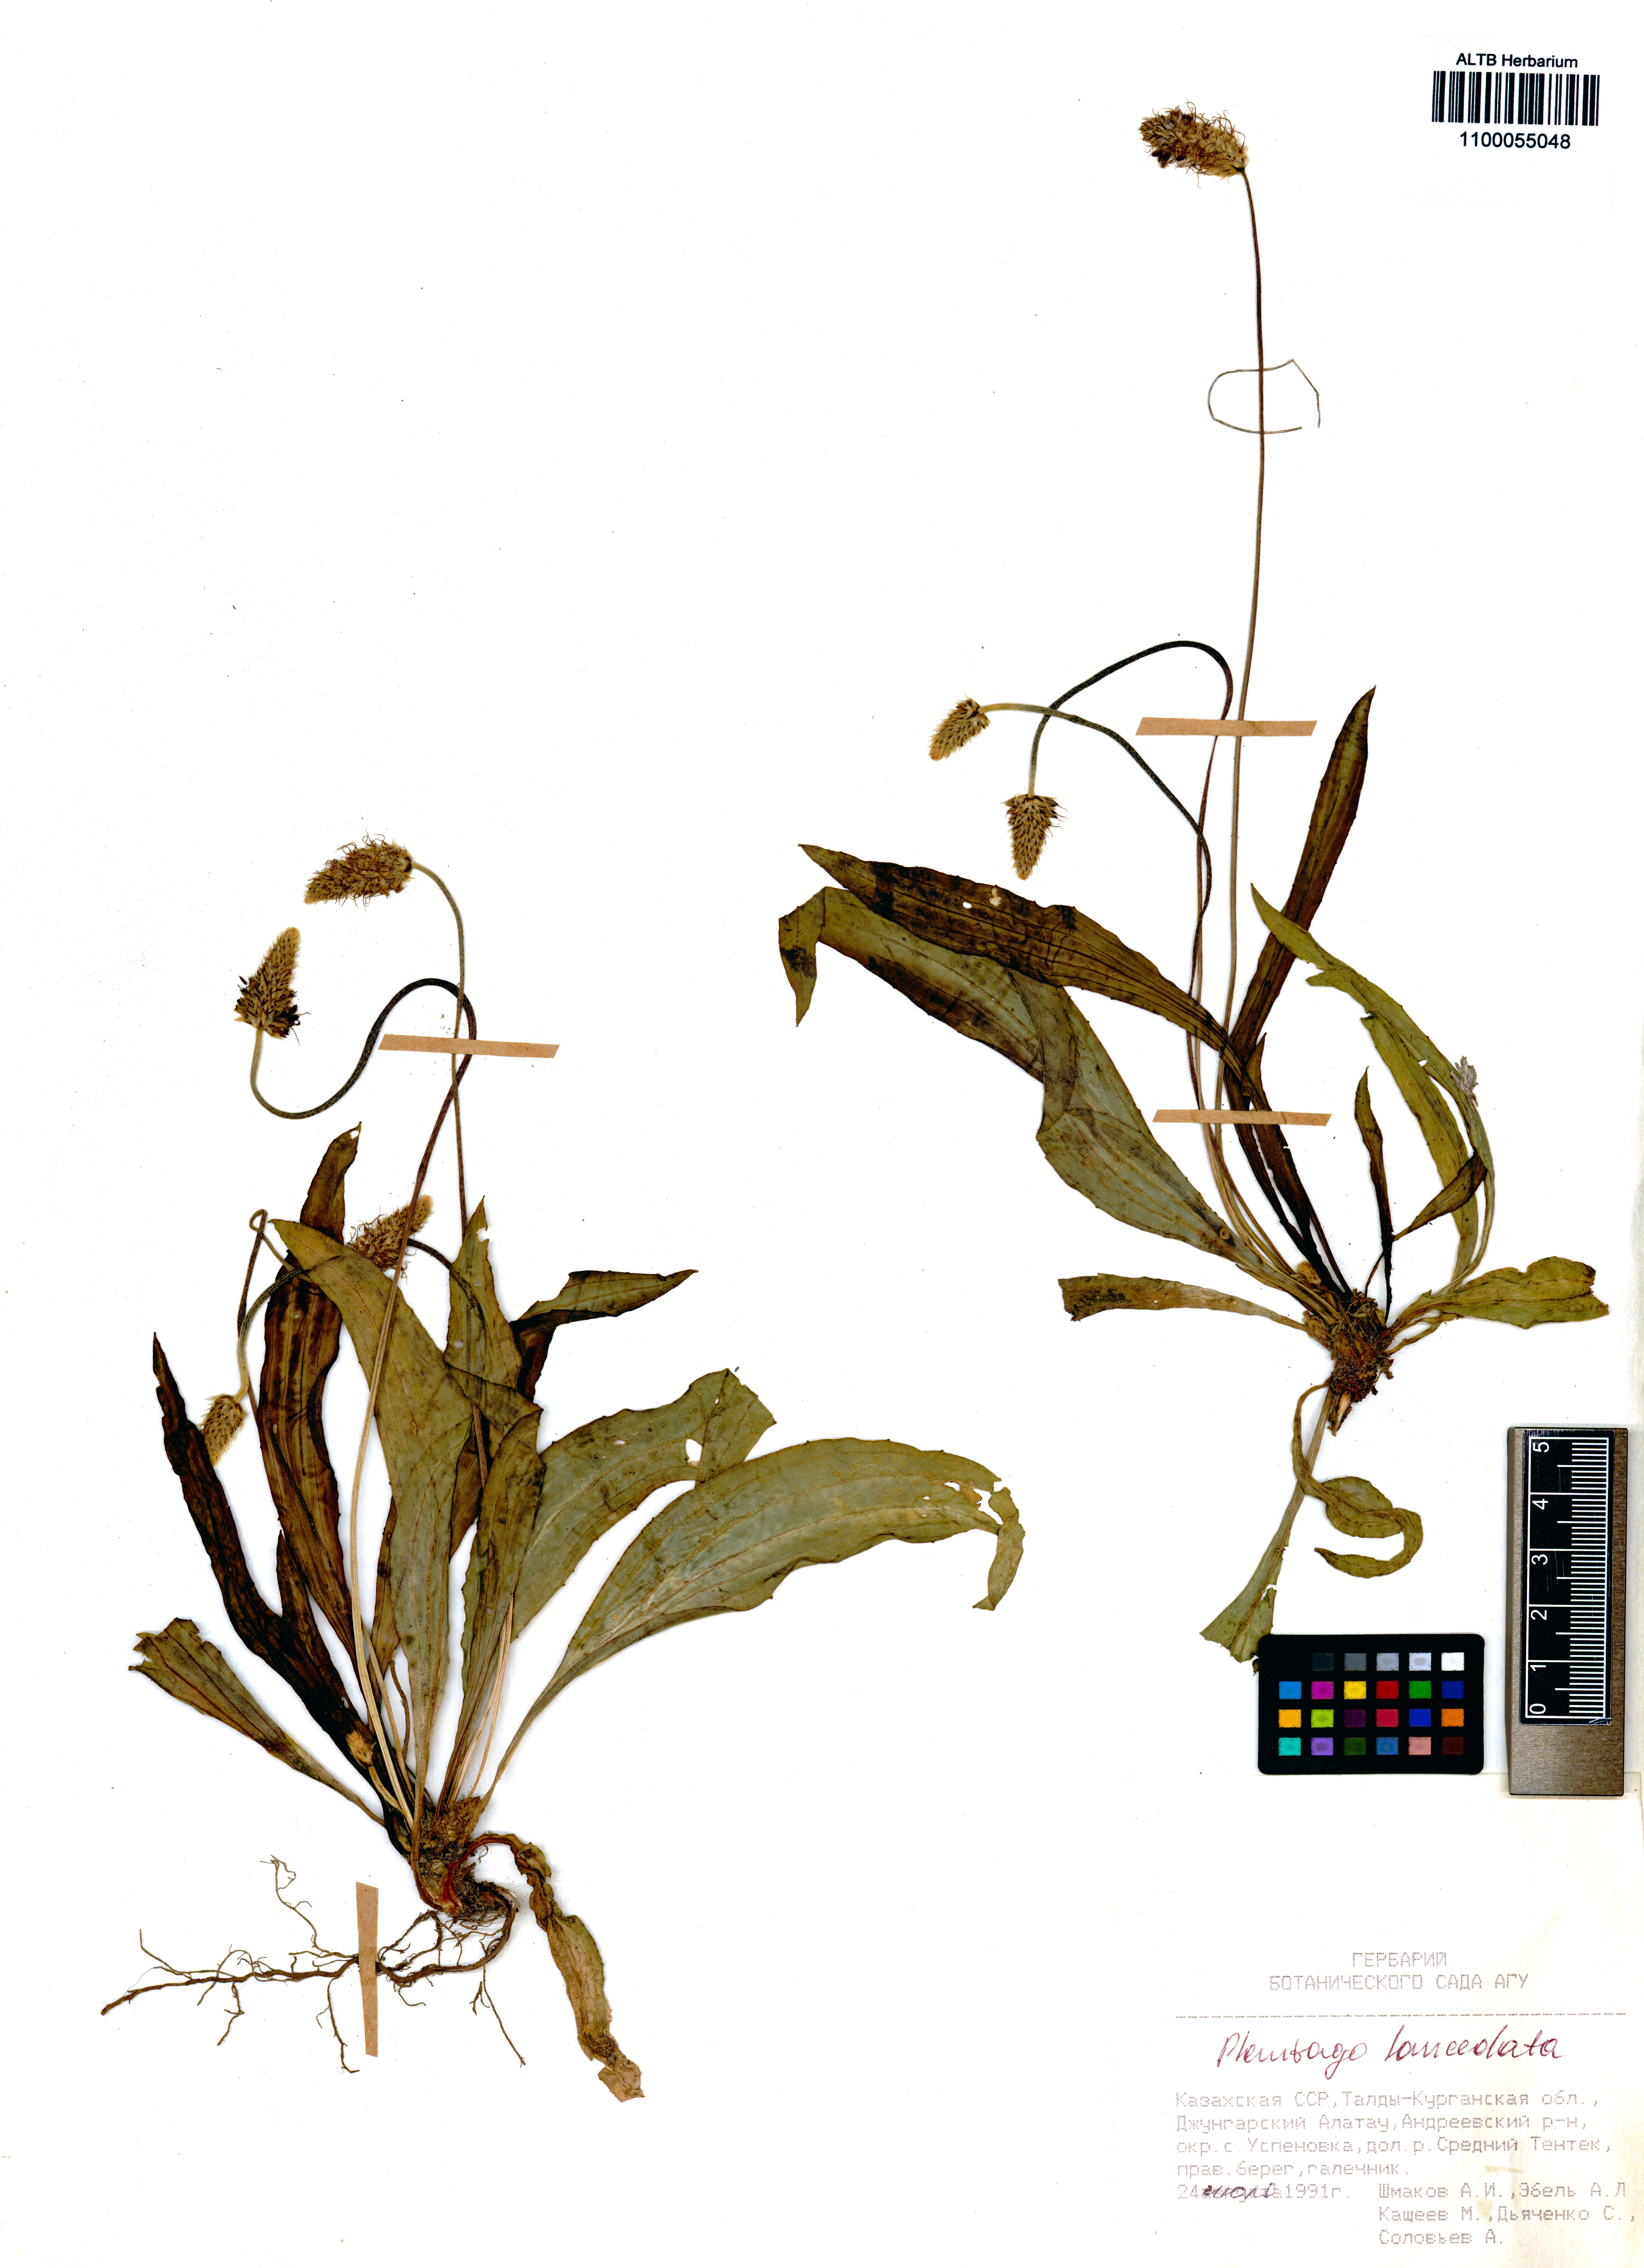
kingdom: Plantae
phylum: Tracheophyta
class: Magnoliopsida
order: Lamiales
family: Plantaginaceae
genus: Plantago
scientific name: Plantago lanceolata
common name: Ribwort plantain
